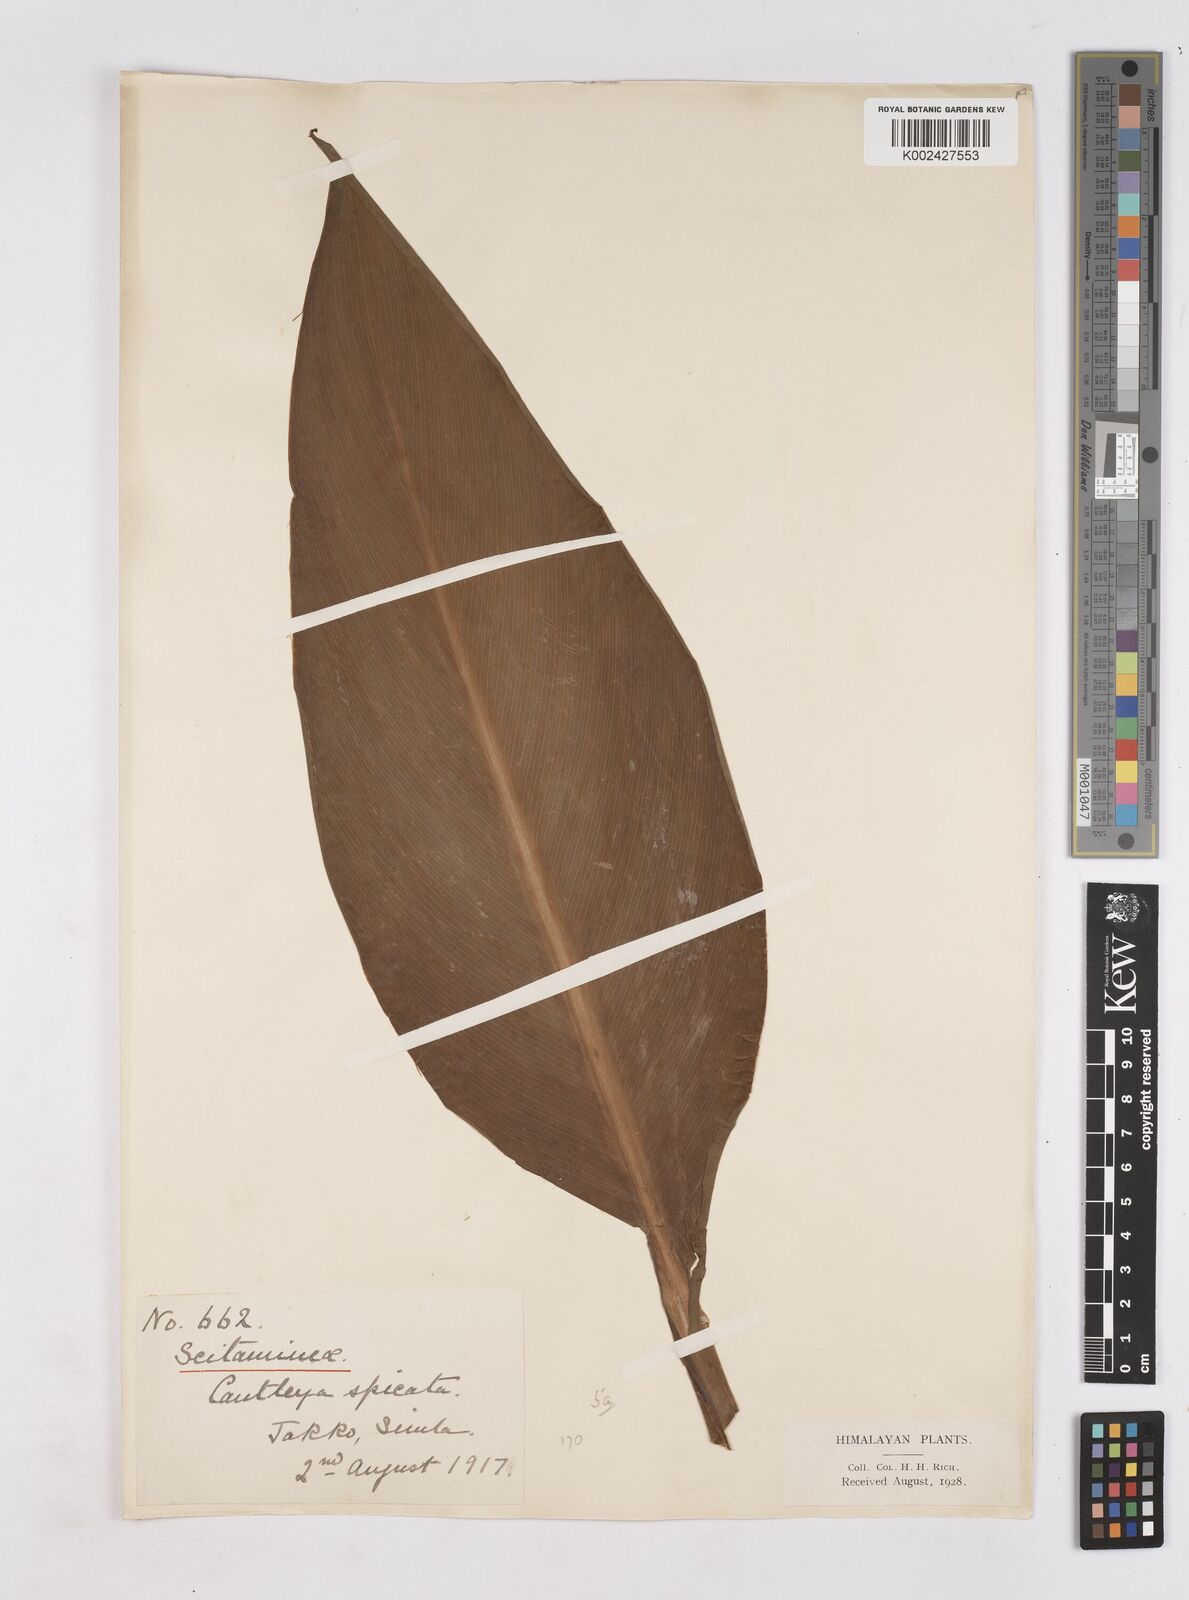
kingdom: Plantae
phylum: Tracheophyta
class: Liliopsida
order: Zingiberales
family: Zingiberaceae
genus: Cautleya
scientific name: Cautleya spicata
